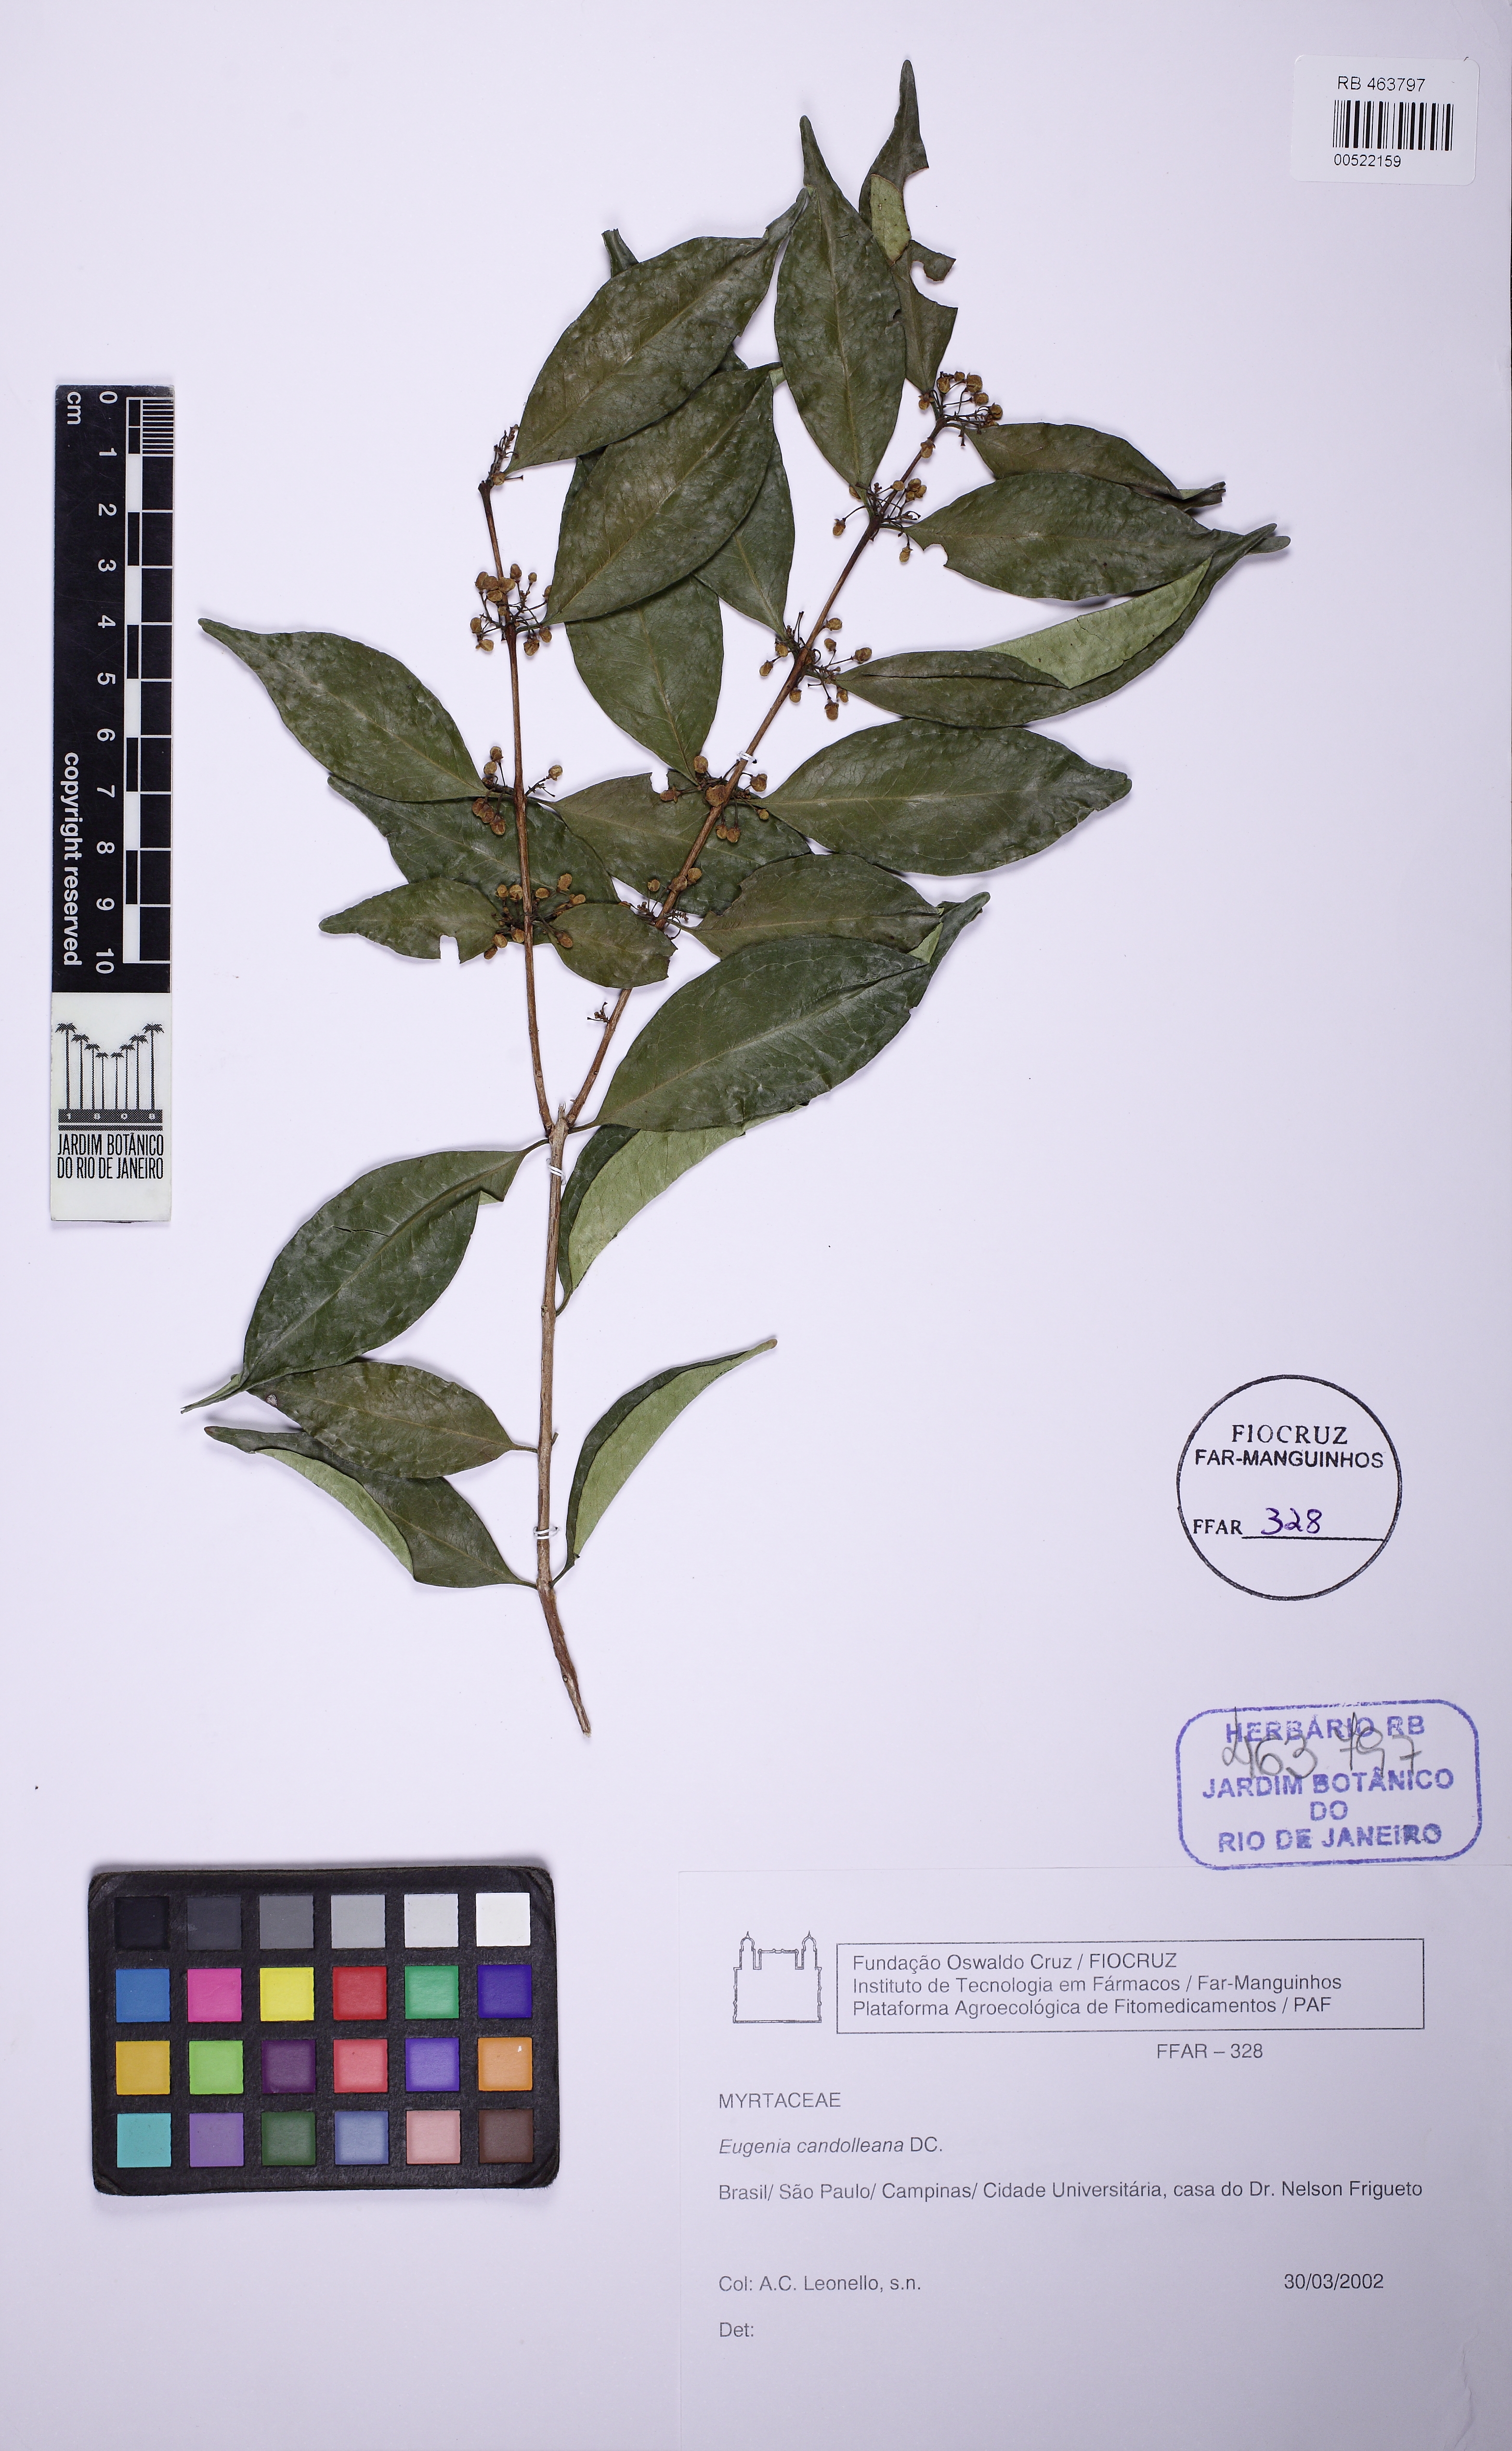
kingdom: Plantae
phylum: Tracheophyta
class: Magnoliopsida
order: Myrtales
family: Myrtaceae
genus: Eugenia
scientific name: Eugenia candolleana
